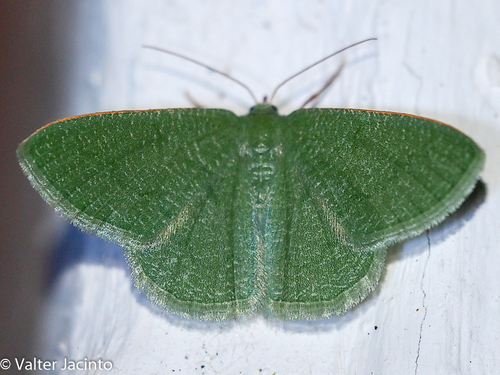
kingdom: Animalia
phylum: Arthropoda
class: Insecta
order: Lepidoptera
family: Geometridae
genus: Phaiogramma
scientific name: Phaiogramma faustinata
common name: Millière's emerald
